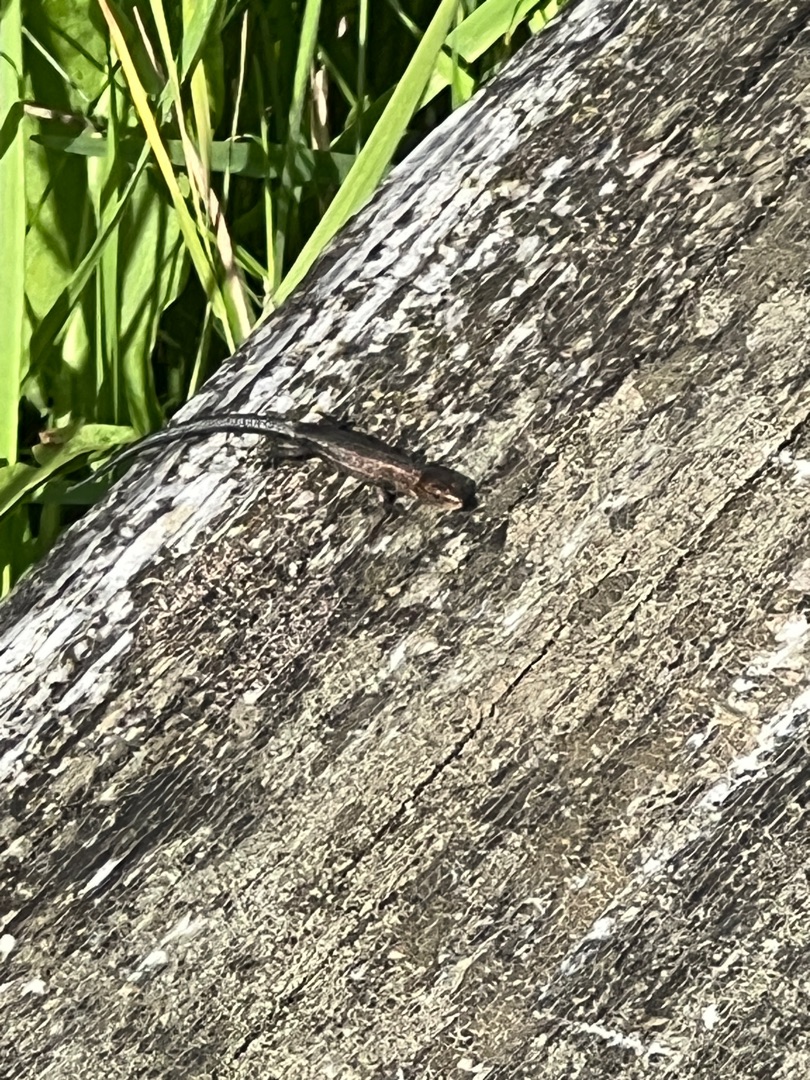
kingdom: Animalia
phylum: Chordata
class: Squamata
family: Lacertidae
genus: Zootoca
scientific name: Zootoca vivipara
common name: Skovfirben
